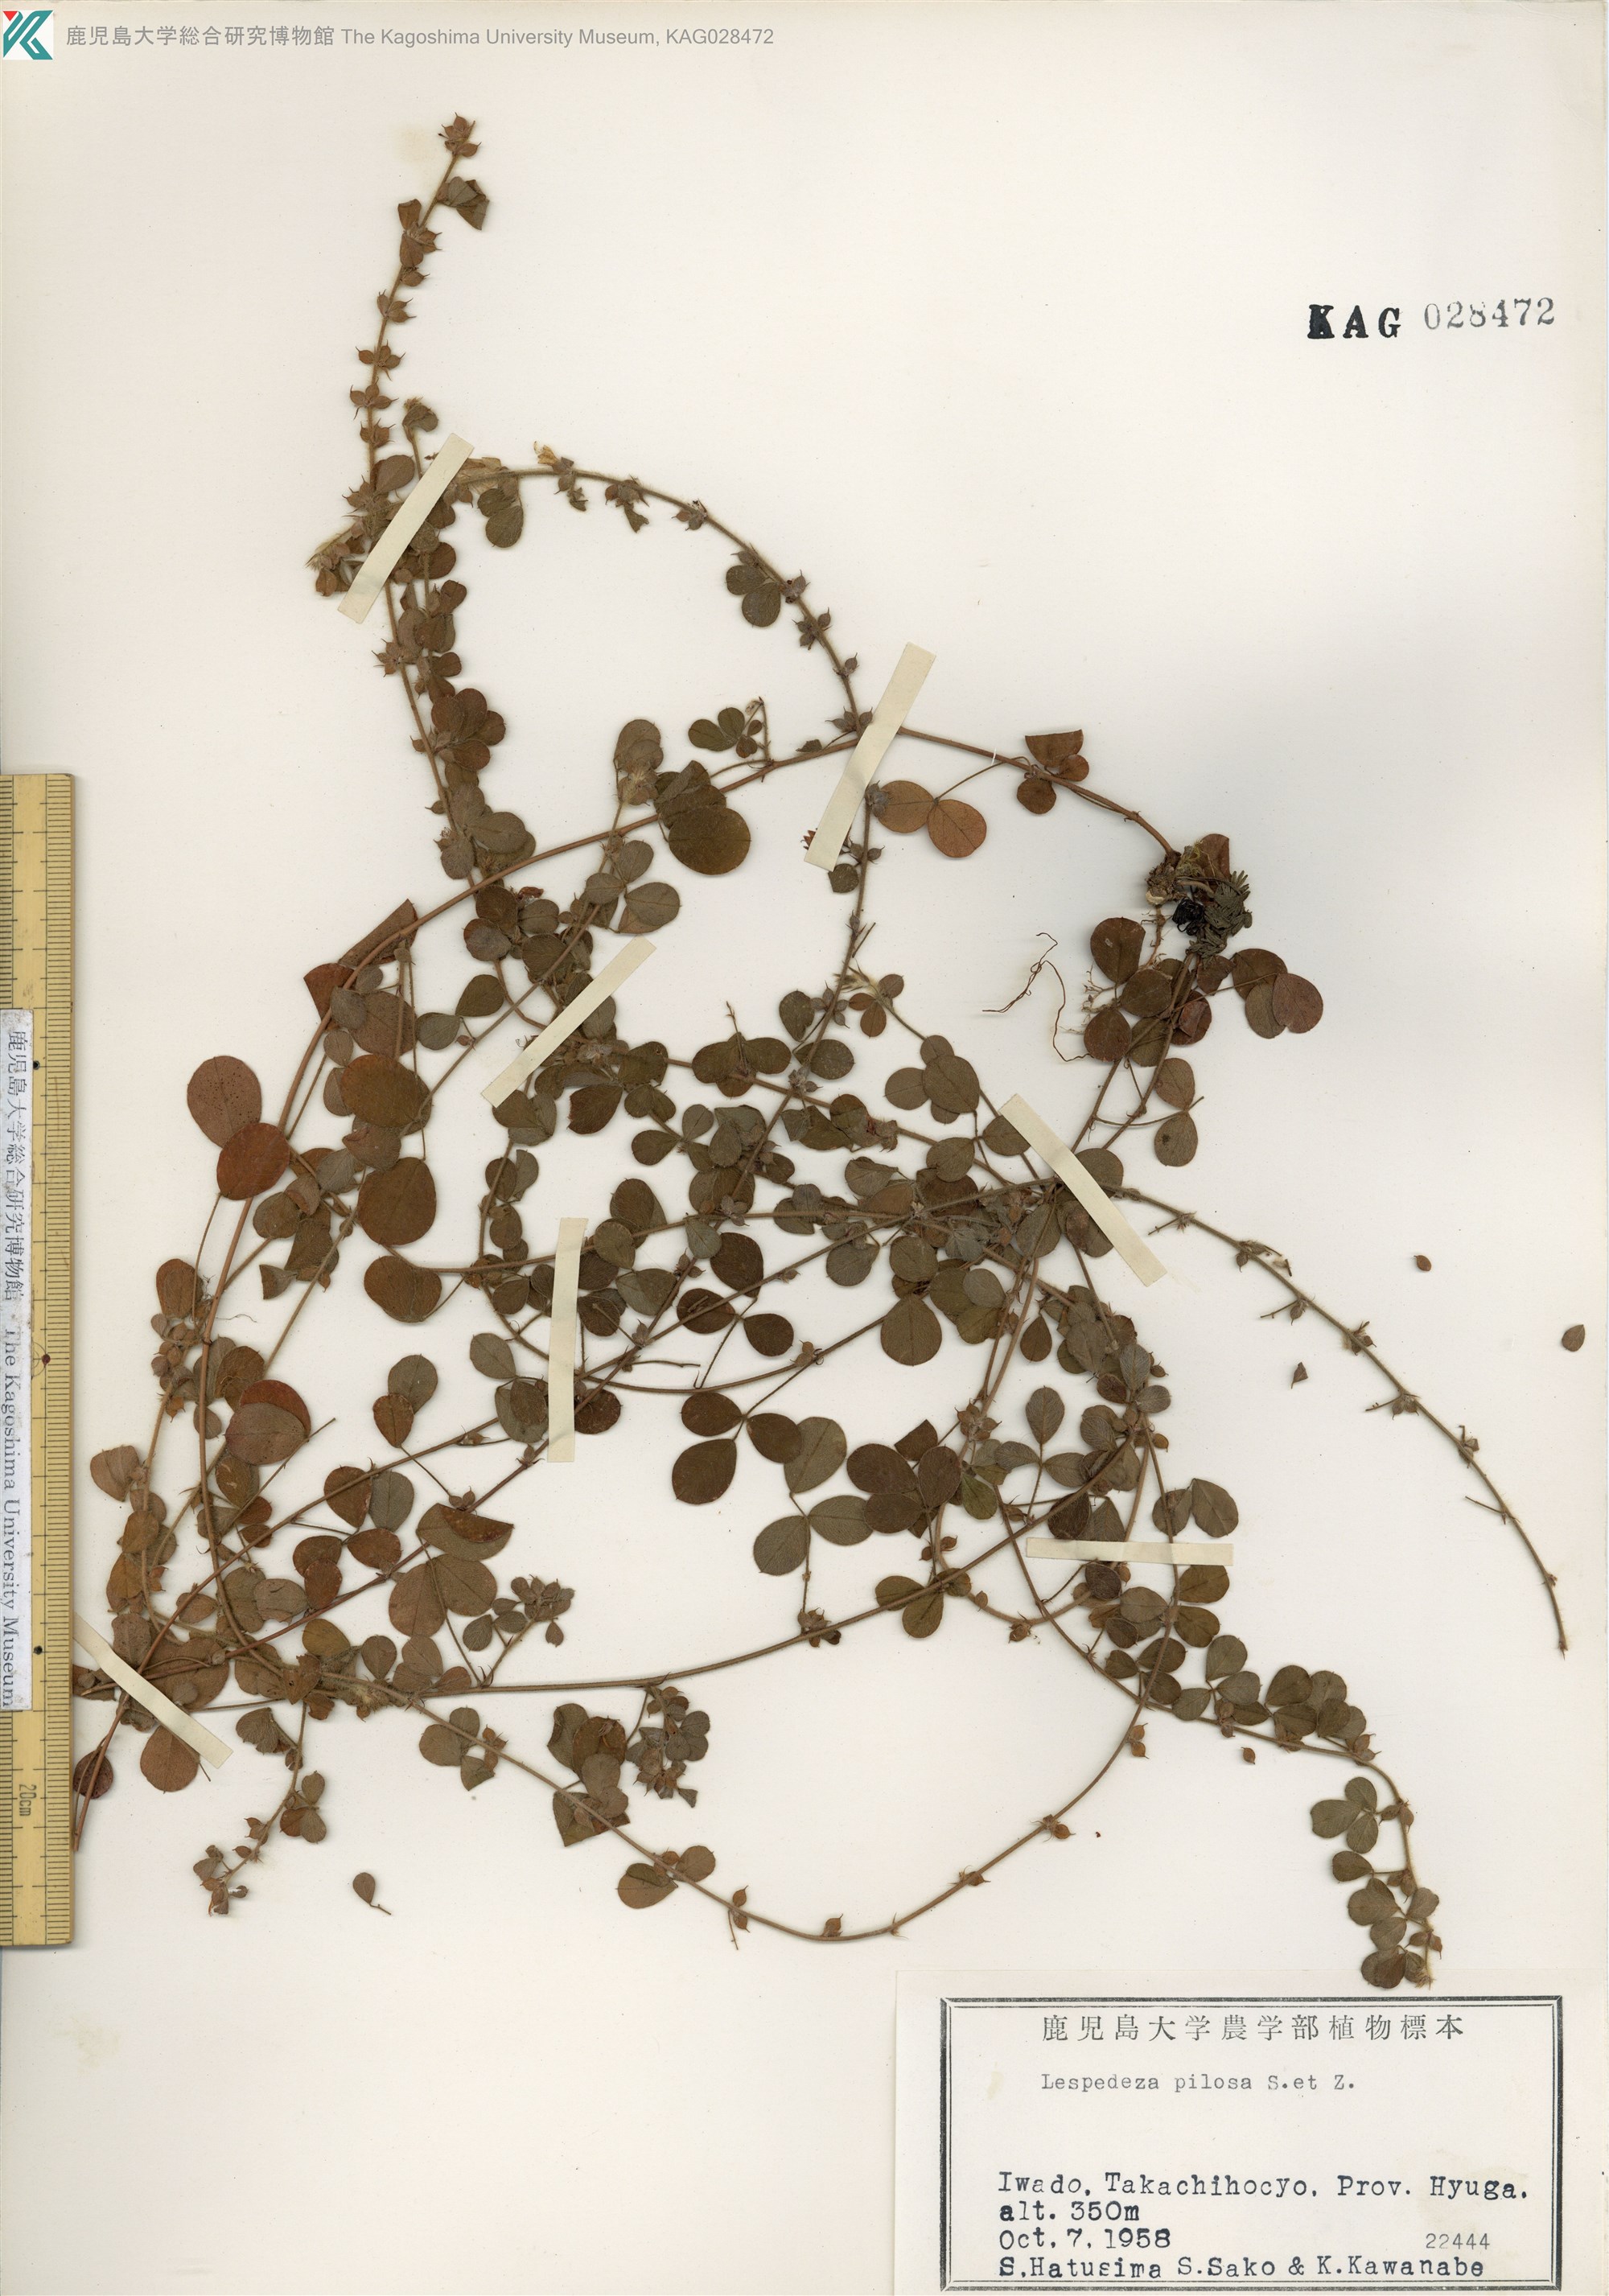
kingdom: Plantae
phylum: Tracheophyta
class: Magnoliopsida
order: Fabales
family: Fabaceae
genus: Lespedeza
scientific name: Lespedeza pilosa
